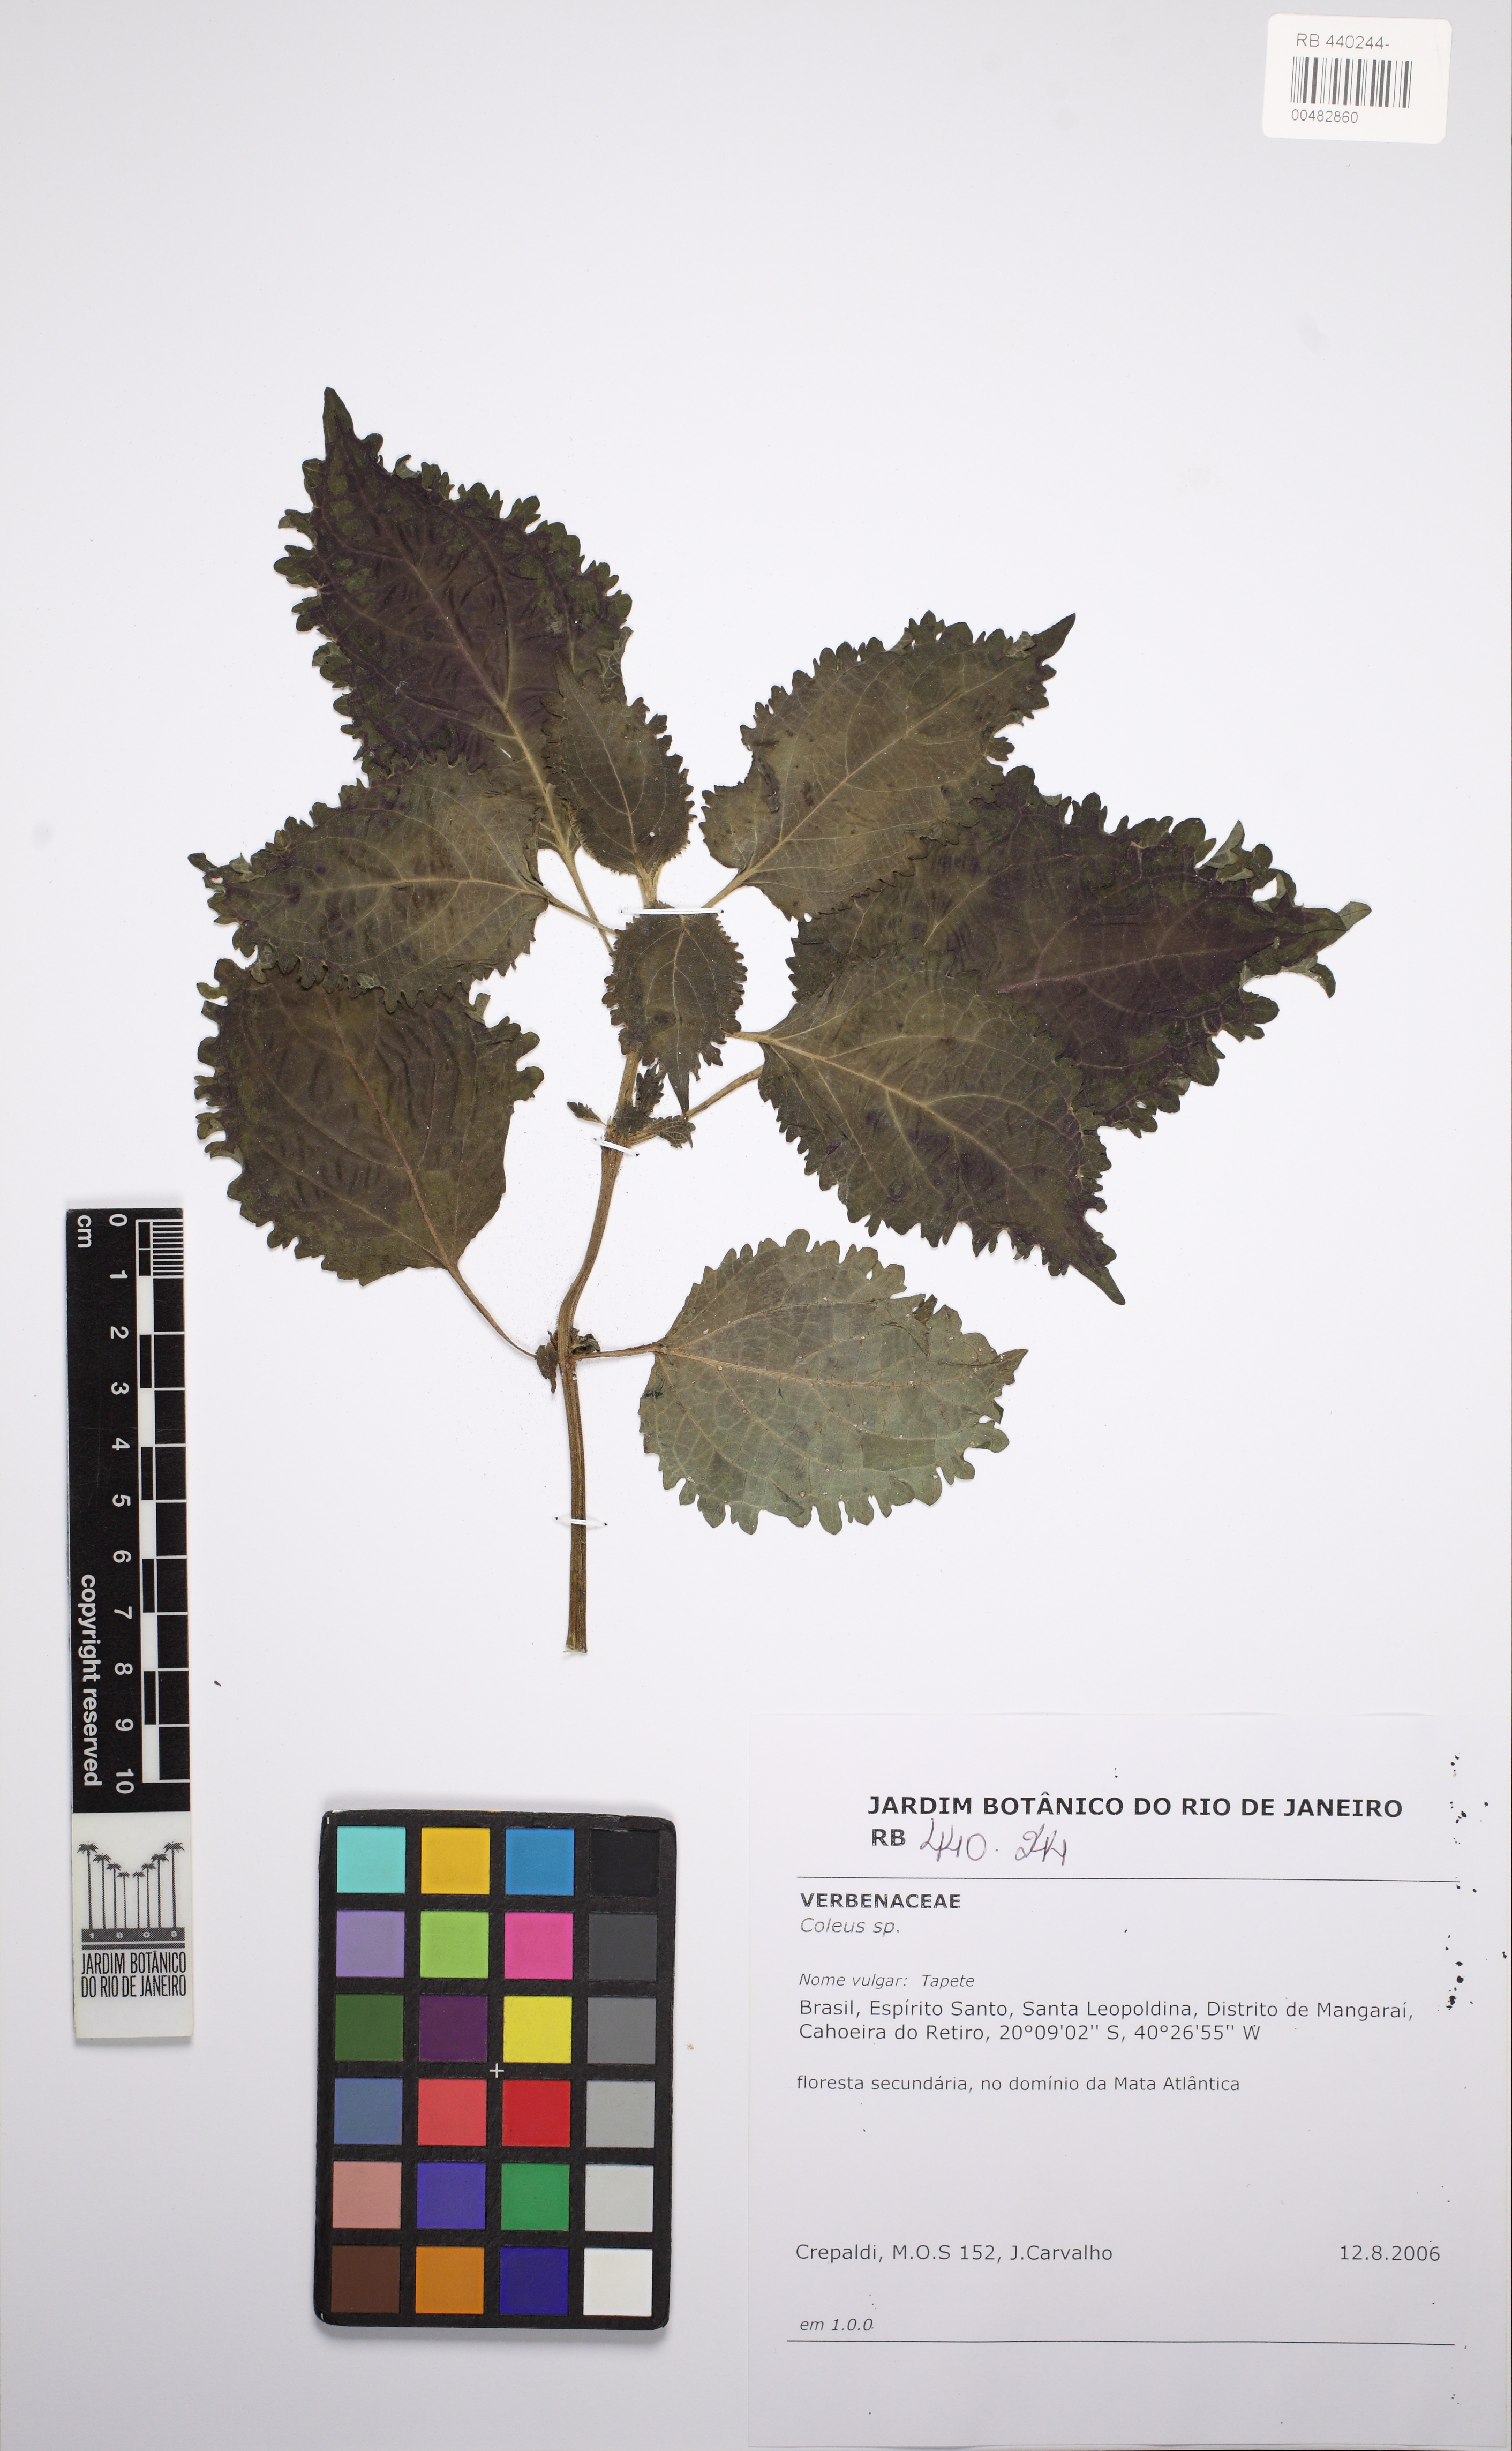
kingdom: Plantae
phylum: Tracheophyta
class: Magnoliopsida
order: Lamiales
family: Lamiaceae
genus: Coleus
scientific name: Coleus
